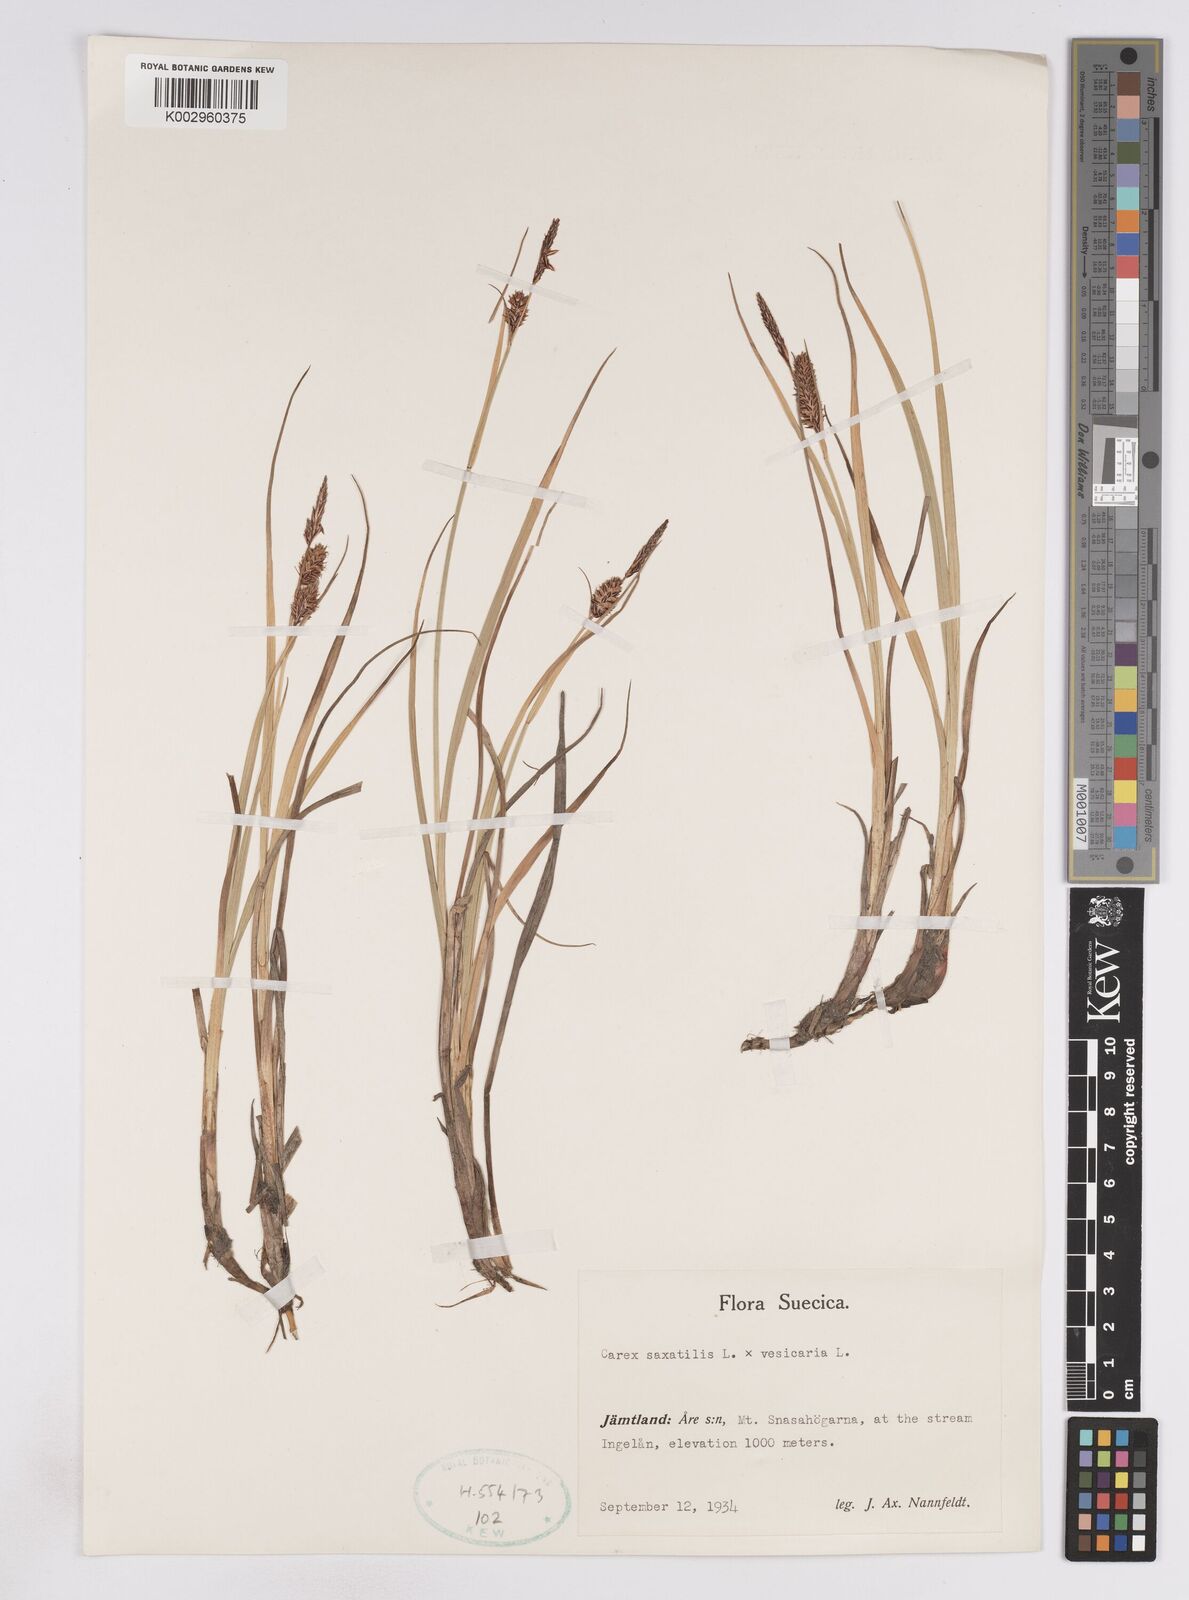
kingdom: Plantae
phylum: Tracheophyta
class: Liliopsida
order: Poales
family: Cyperaceae
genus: Carex
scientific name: Carex vesicaria
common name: Bladder-sedge
